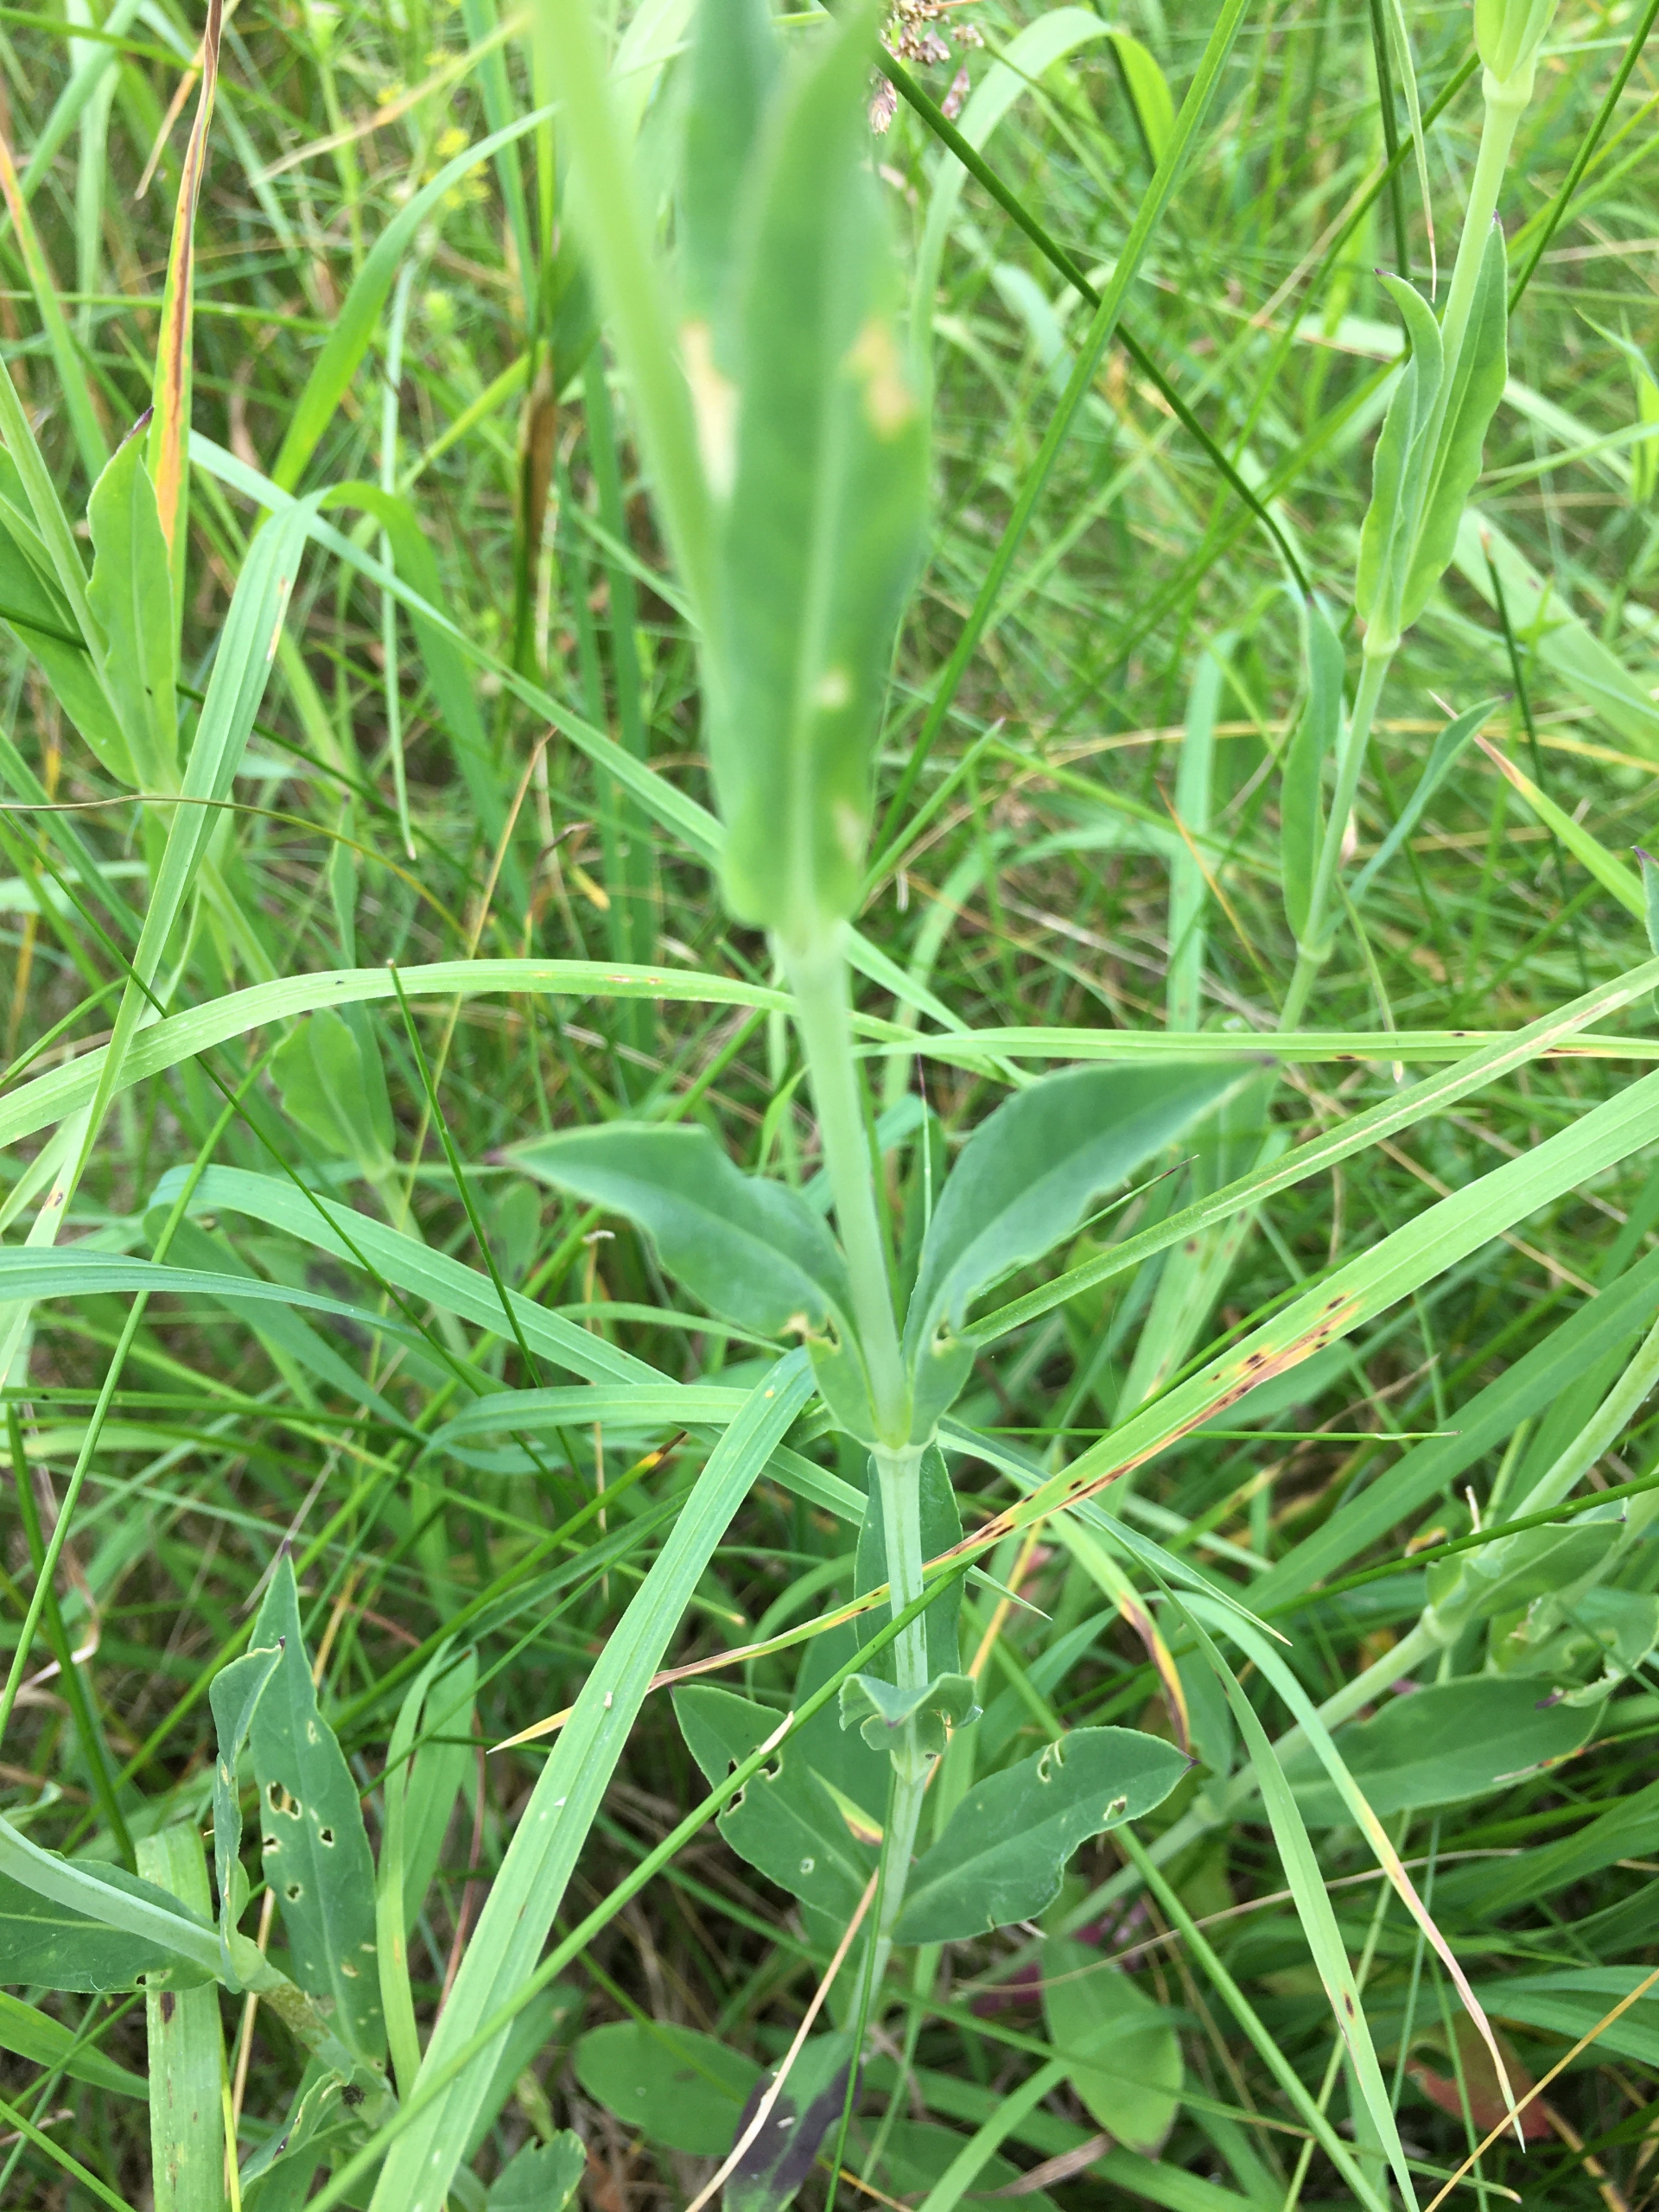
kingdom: Plantae
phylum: Tracheophyta
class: Magnoliopsida
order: Caryophyllales
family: Caryophyllaceae
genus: Silene
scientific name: Silene vulgaris
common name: Blæresmælde
